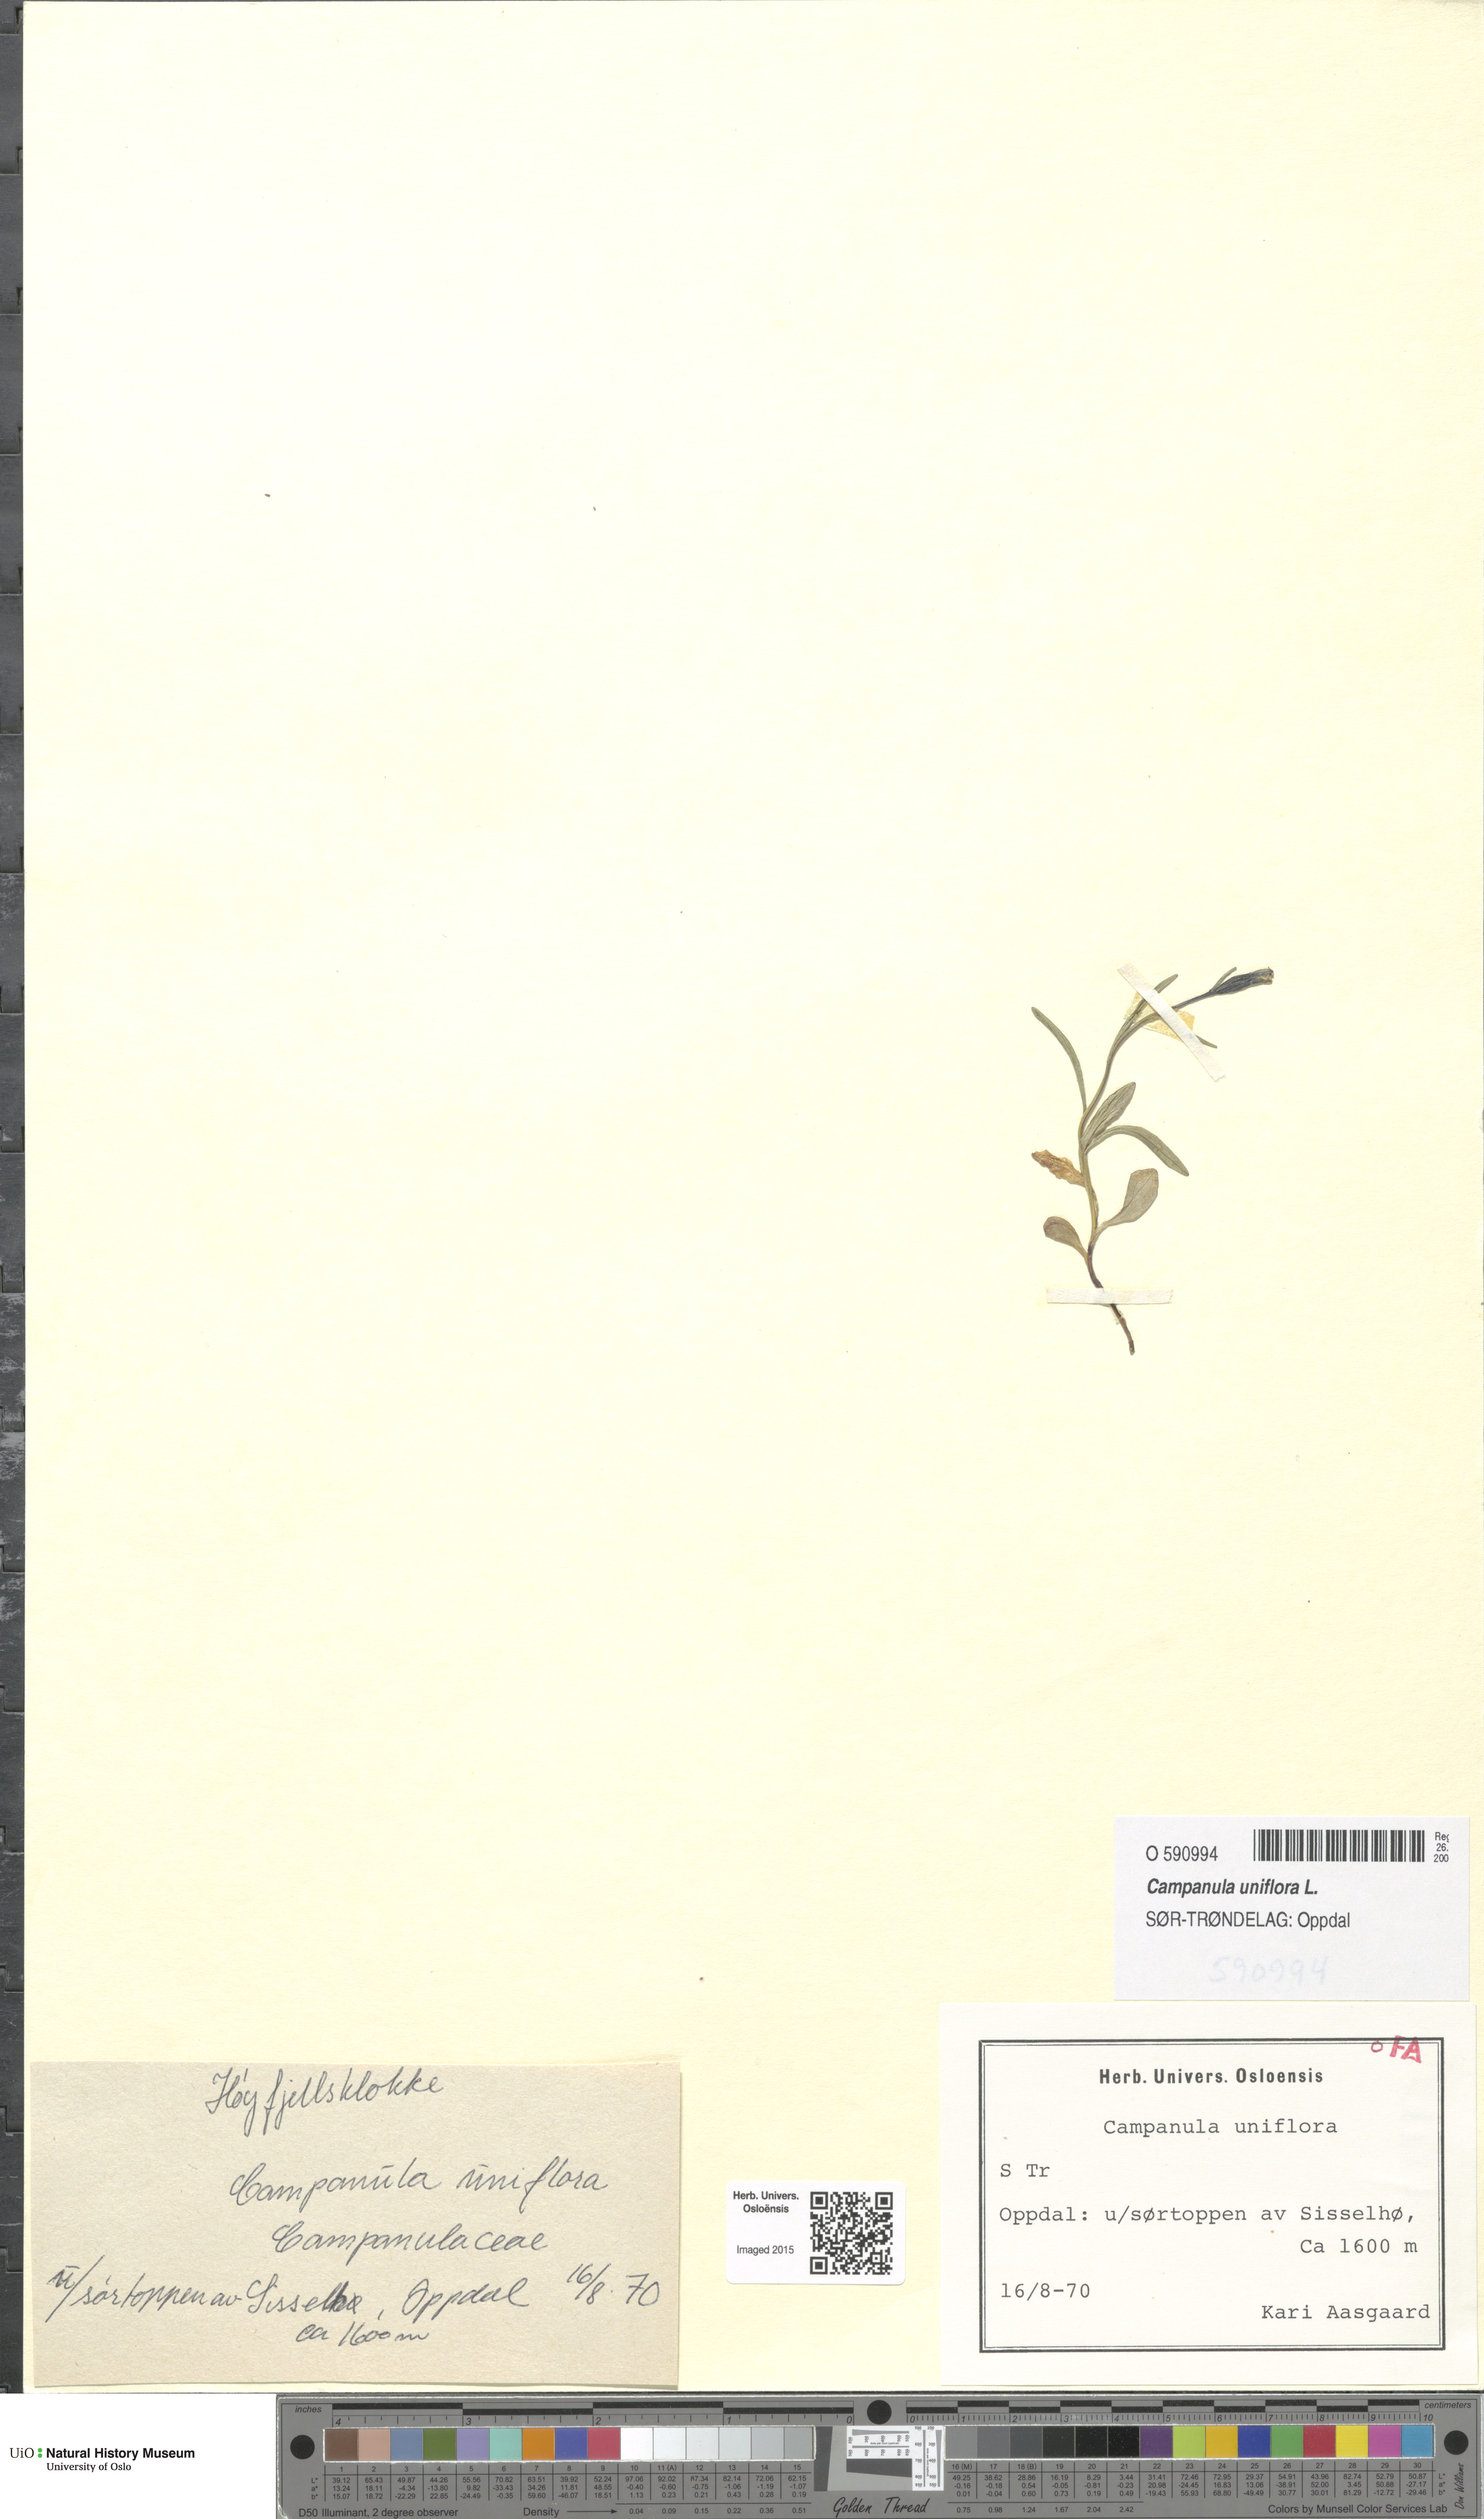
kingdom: Plantae
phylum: Tracheophyta
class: Magnoliopsida
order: Asterales
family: Campanulaceae
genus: Melanocalyx
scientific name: Melanocalyx uniflora
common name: Alpine harebell
